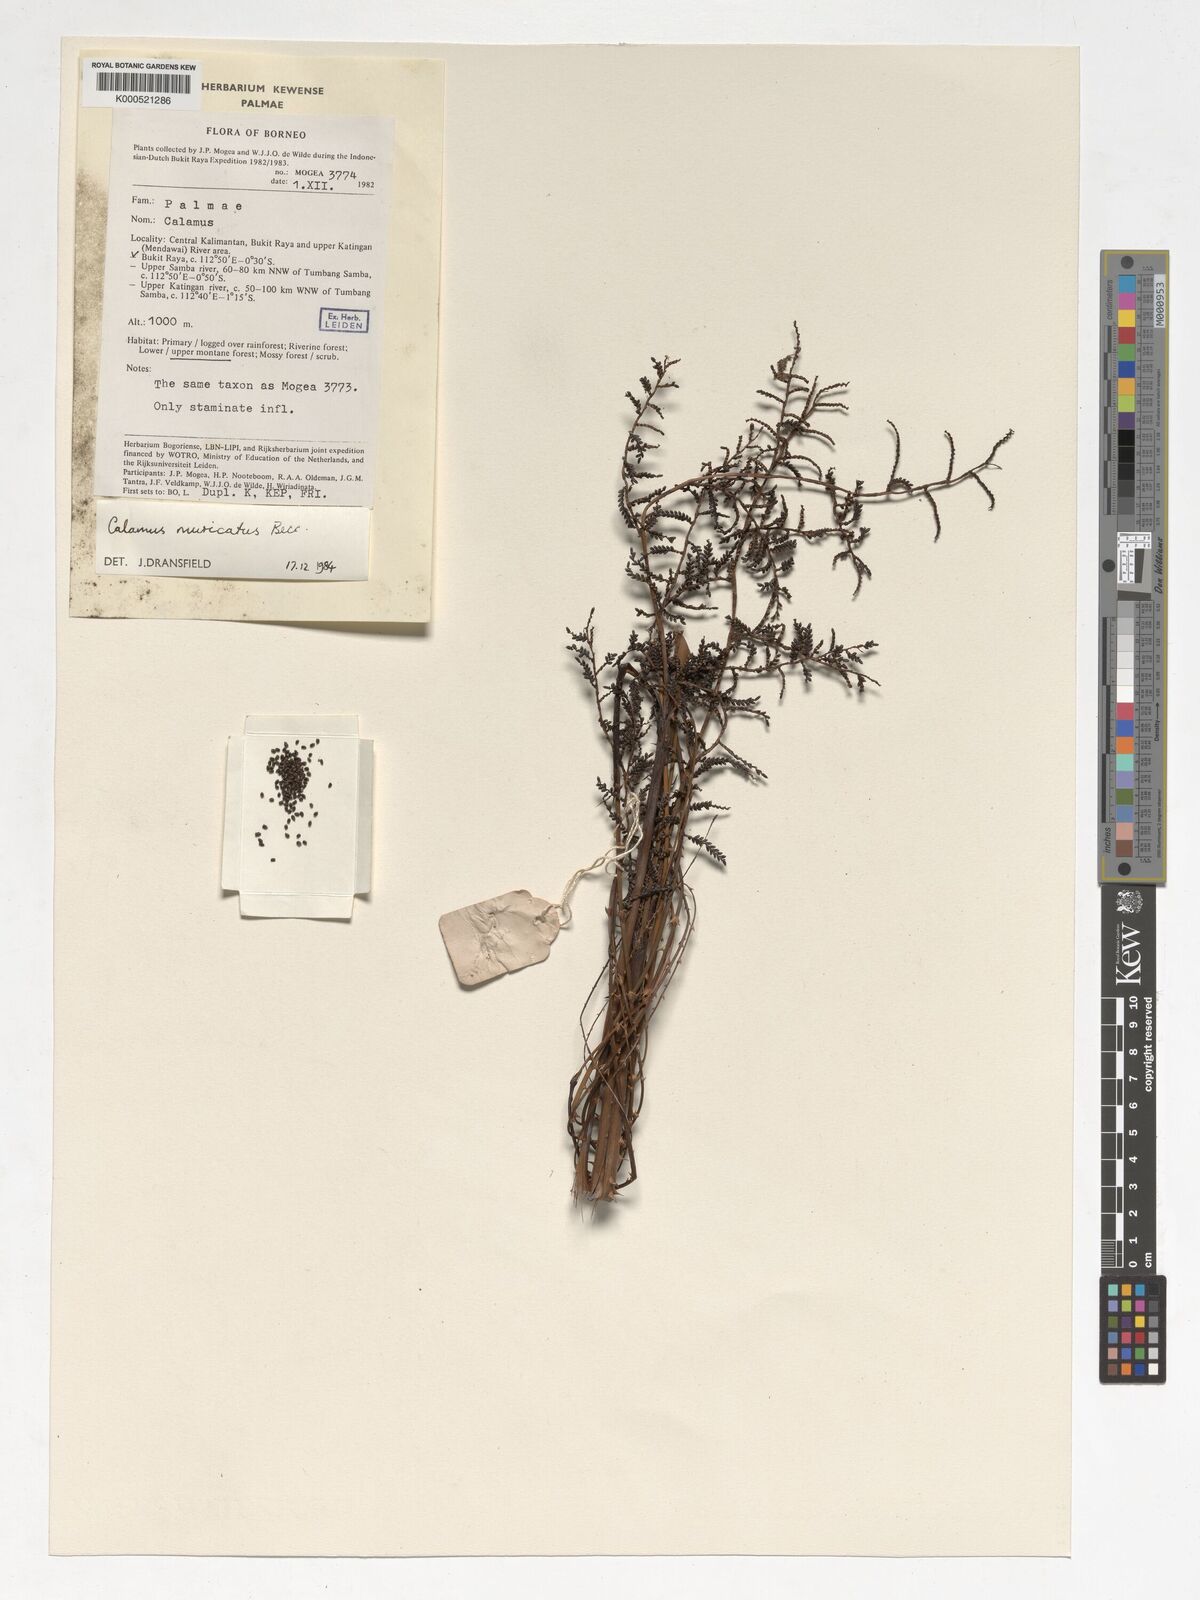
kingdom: Plantae
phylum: Tracheophyta
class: Liliopsida
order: Arecales
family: Arecaceae
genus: Calamus
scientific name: Calamus muricatus
